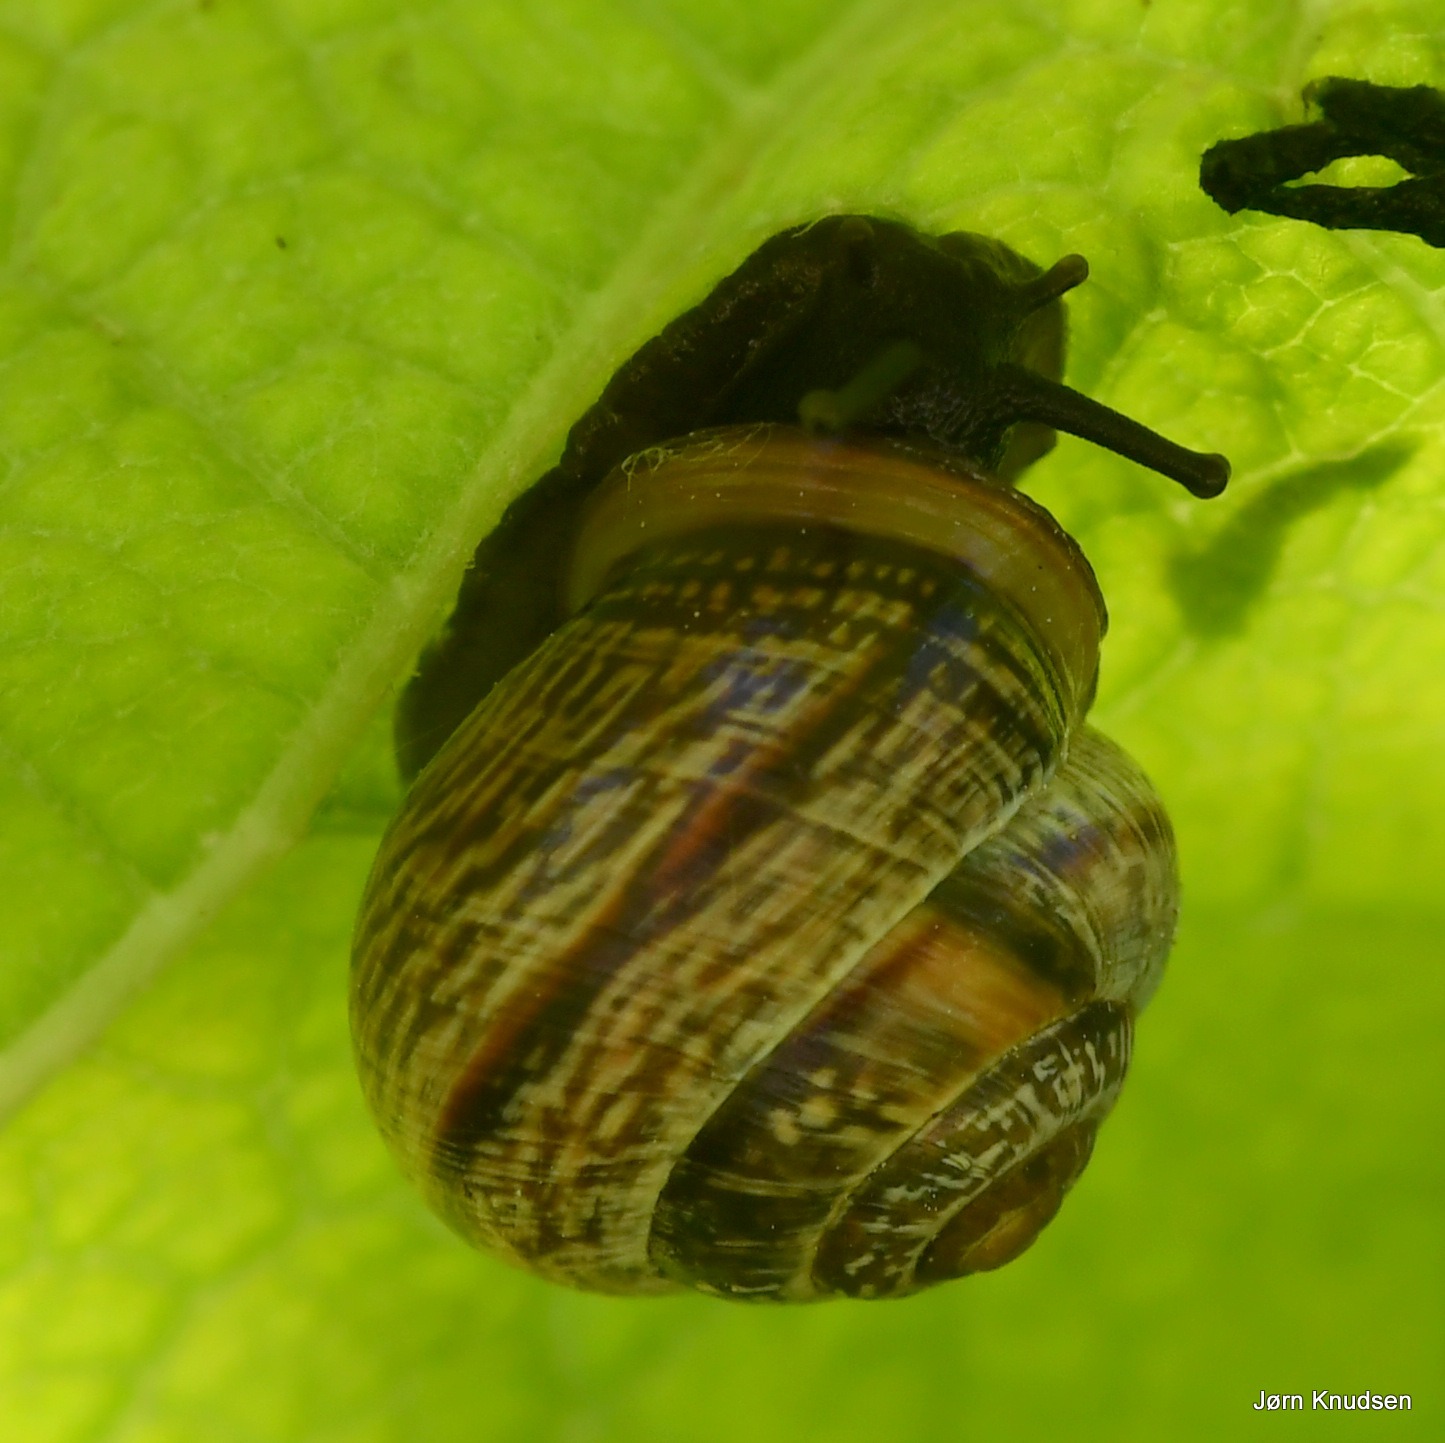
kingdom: Animalia
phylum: Mollusca
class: Gastropoda
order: Stylommatophora
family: Helicidae
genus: Arianta
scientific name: Arianta arbustorum
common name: Kratsnegl
